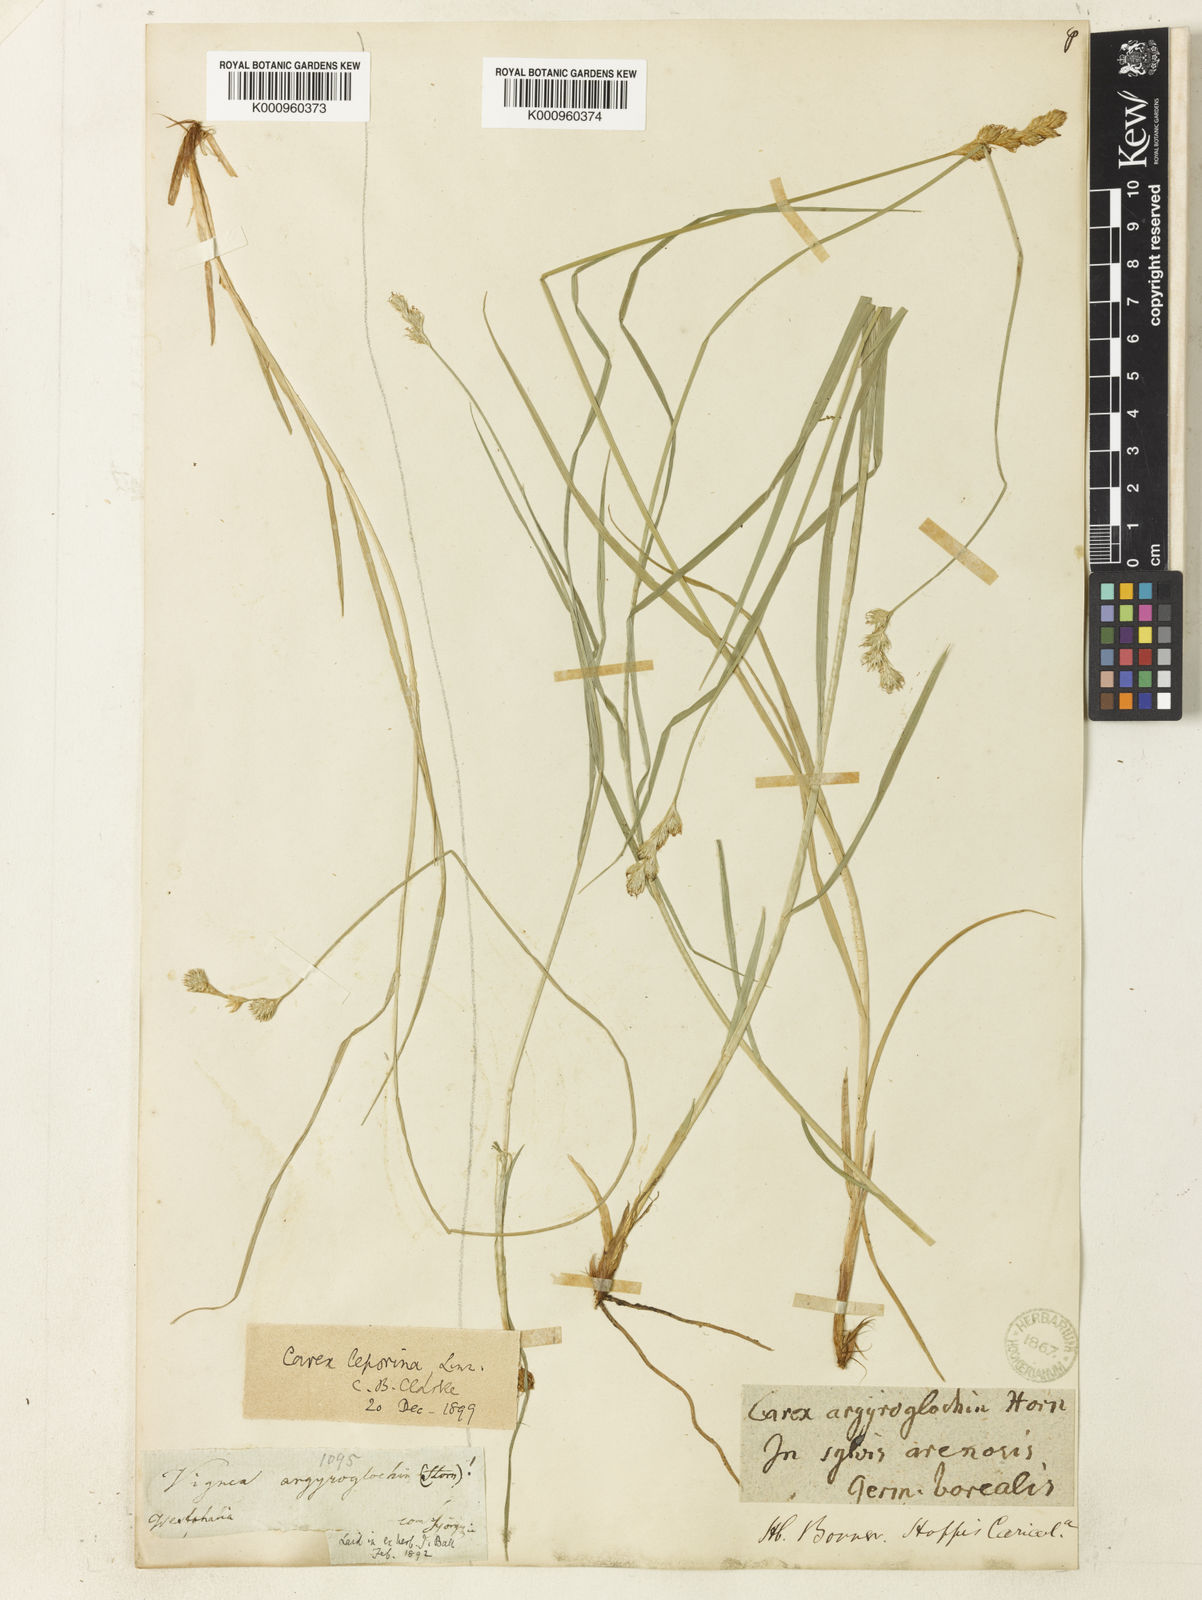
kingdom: Plantae
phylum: Tracheophyta
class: Liliopsida
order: Poales
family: Cyperaceae
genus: Carex
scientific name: Carex leporina
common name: Oval sedge
